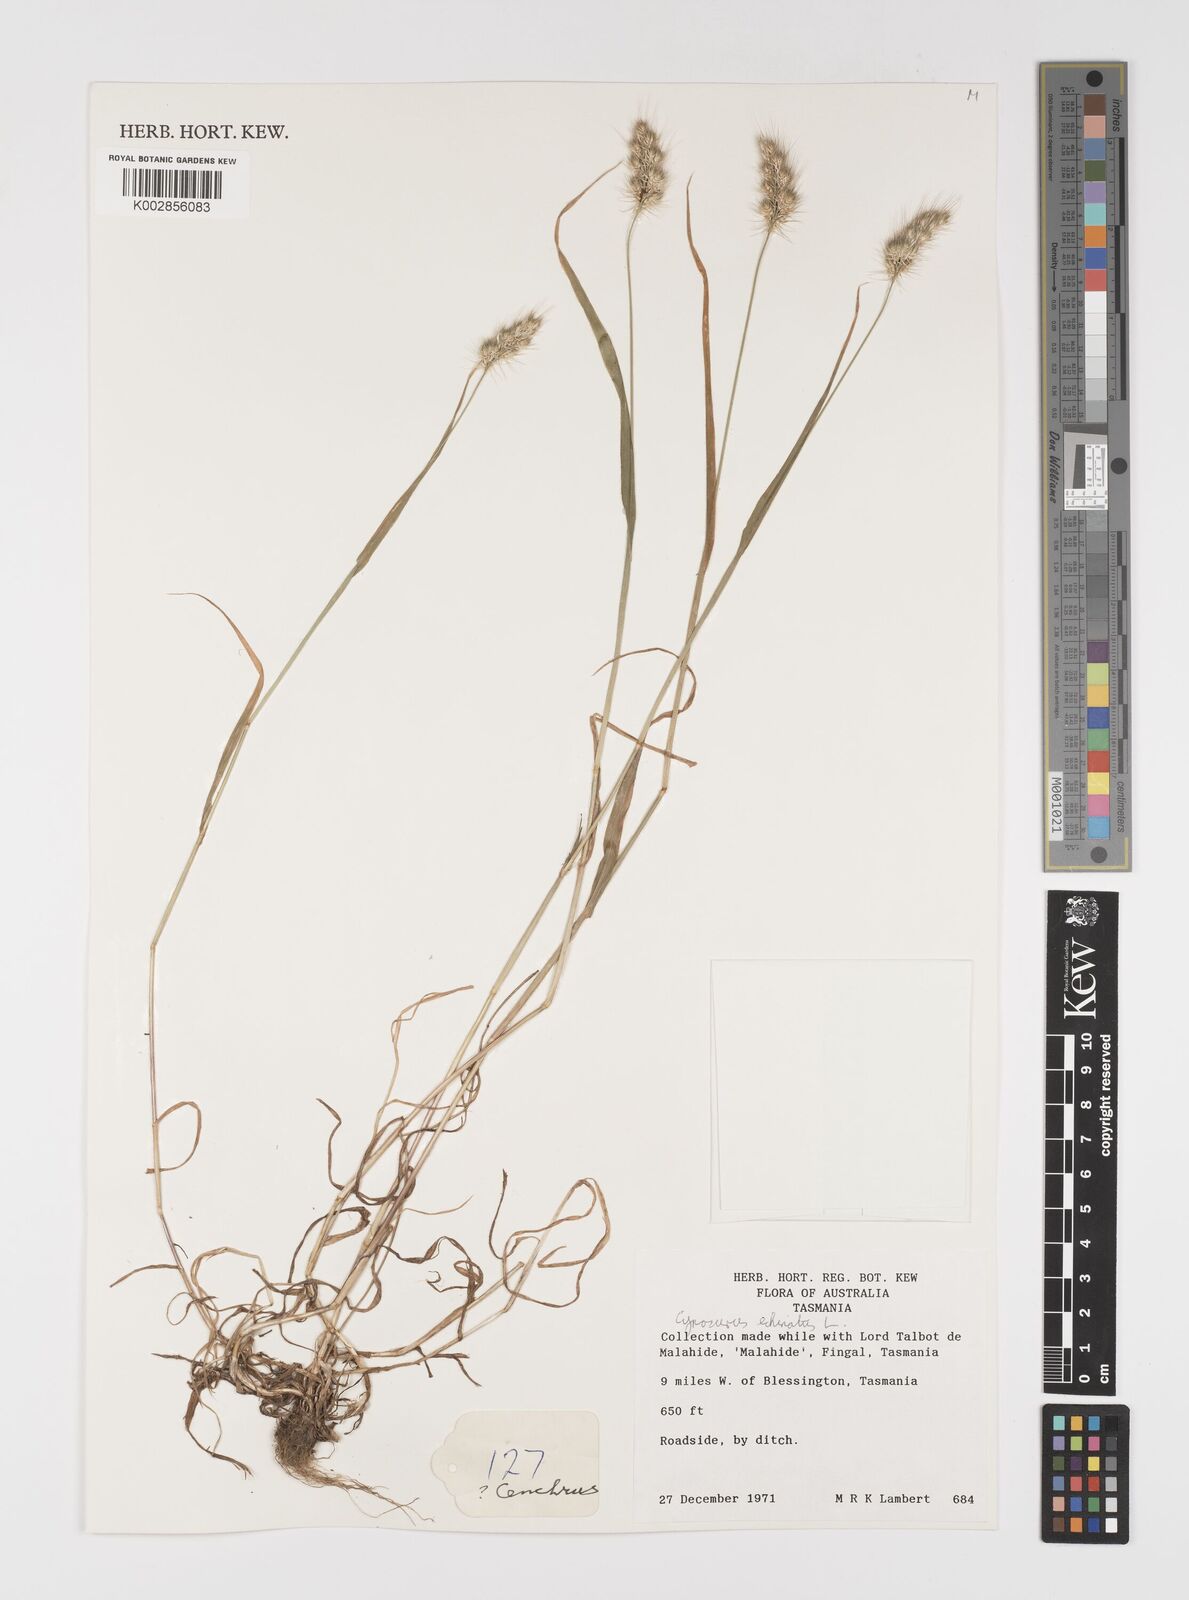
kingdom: Plantae
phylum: Tracheophyta
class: Liliopsida
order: Poales
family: Poaceae
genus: Cynosurus
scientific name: Cynosurus echinatus
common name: Rough dog's-tail
